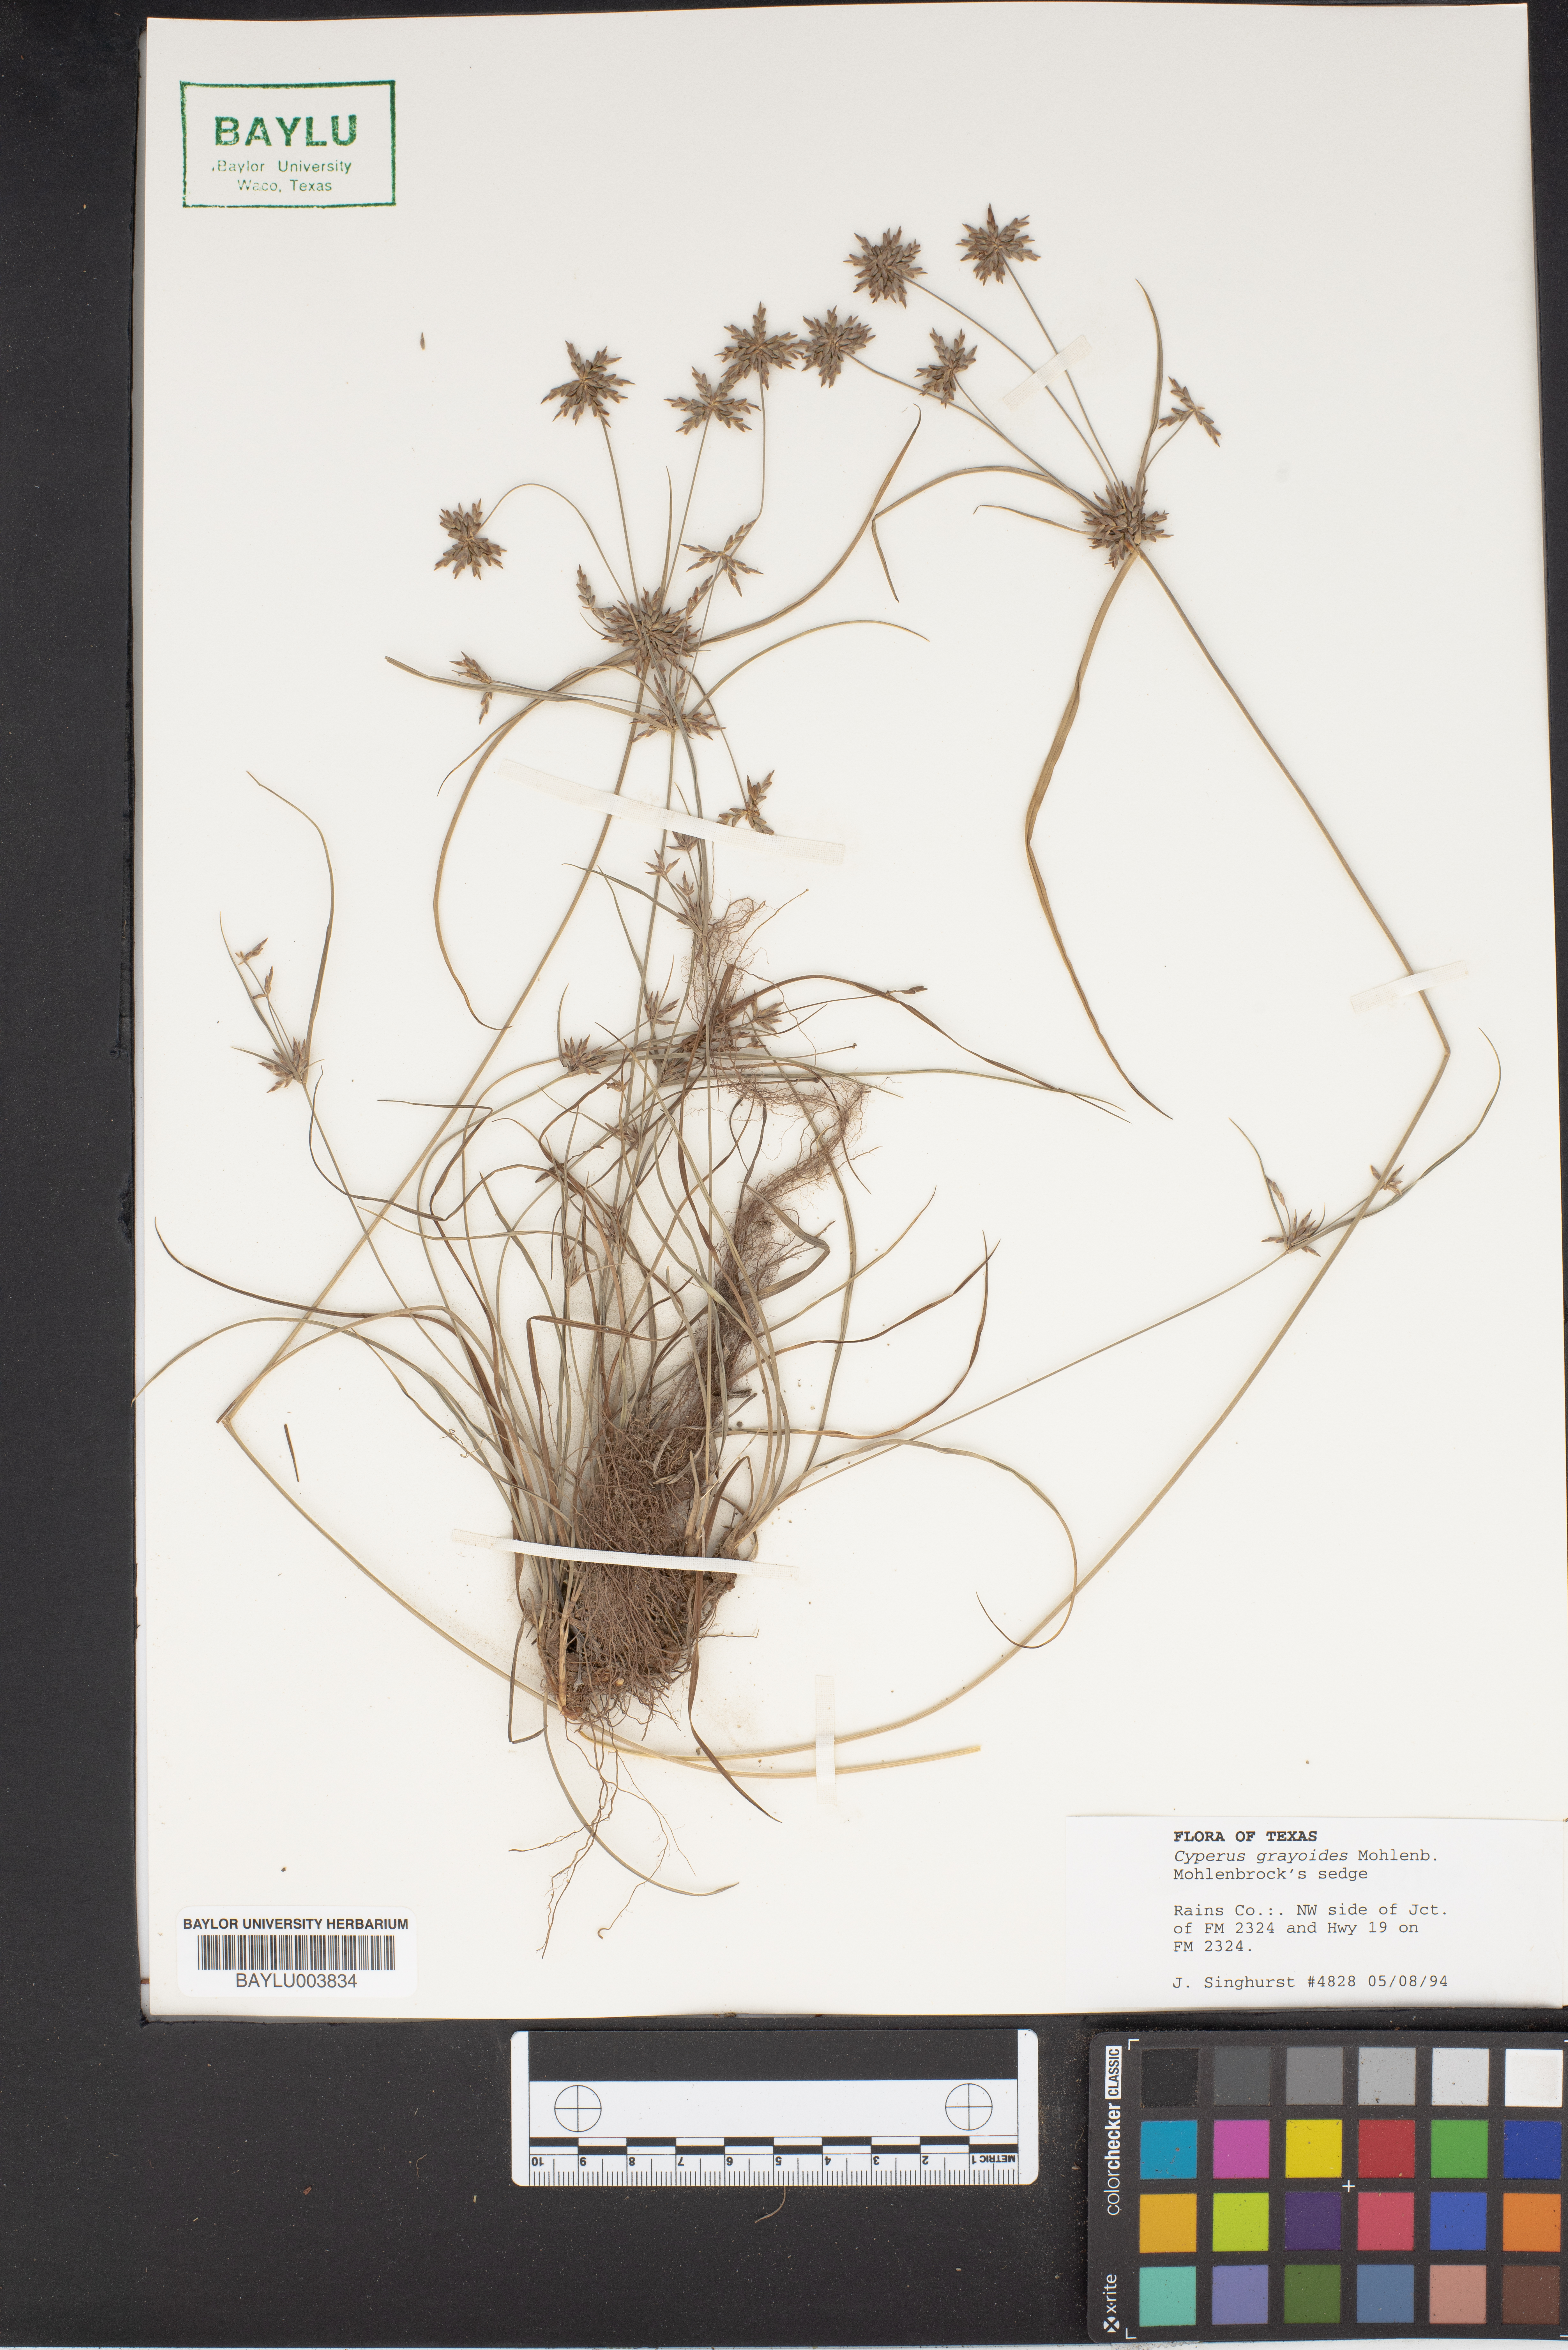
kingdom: Plantae
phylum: Tracheophyta
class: Liliopsida
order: Poales
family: Cyperaceae
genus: Cyperus
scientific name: Cyperus grayioides
